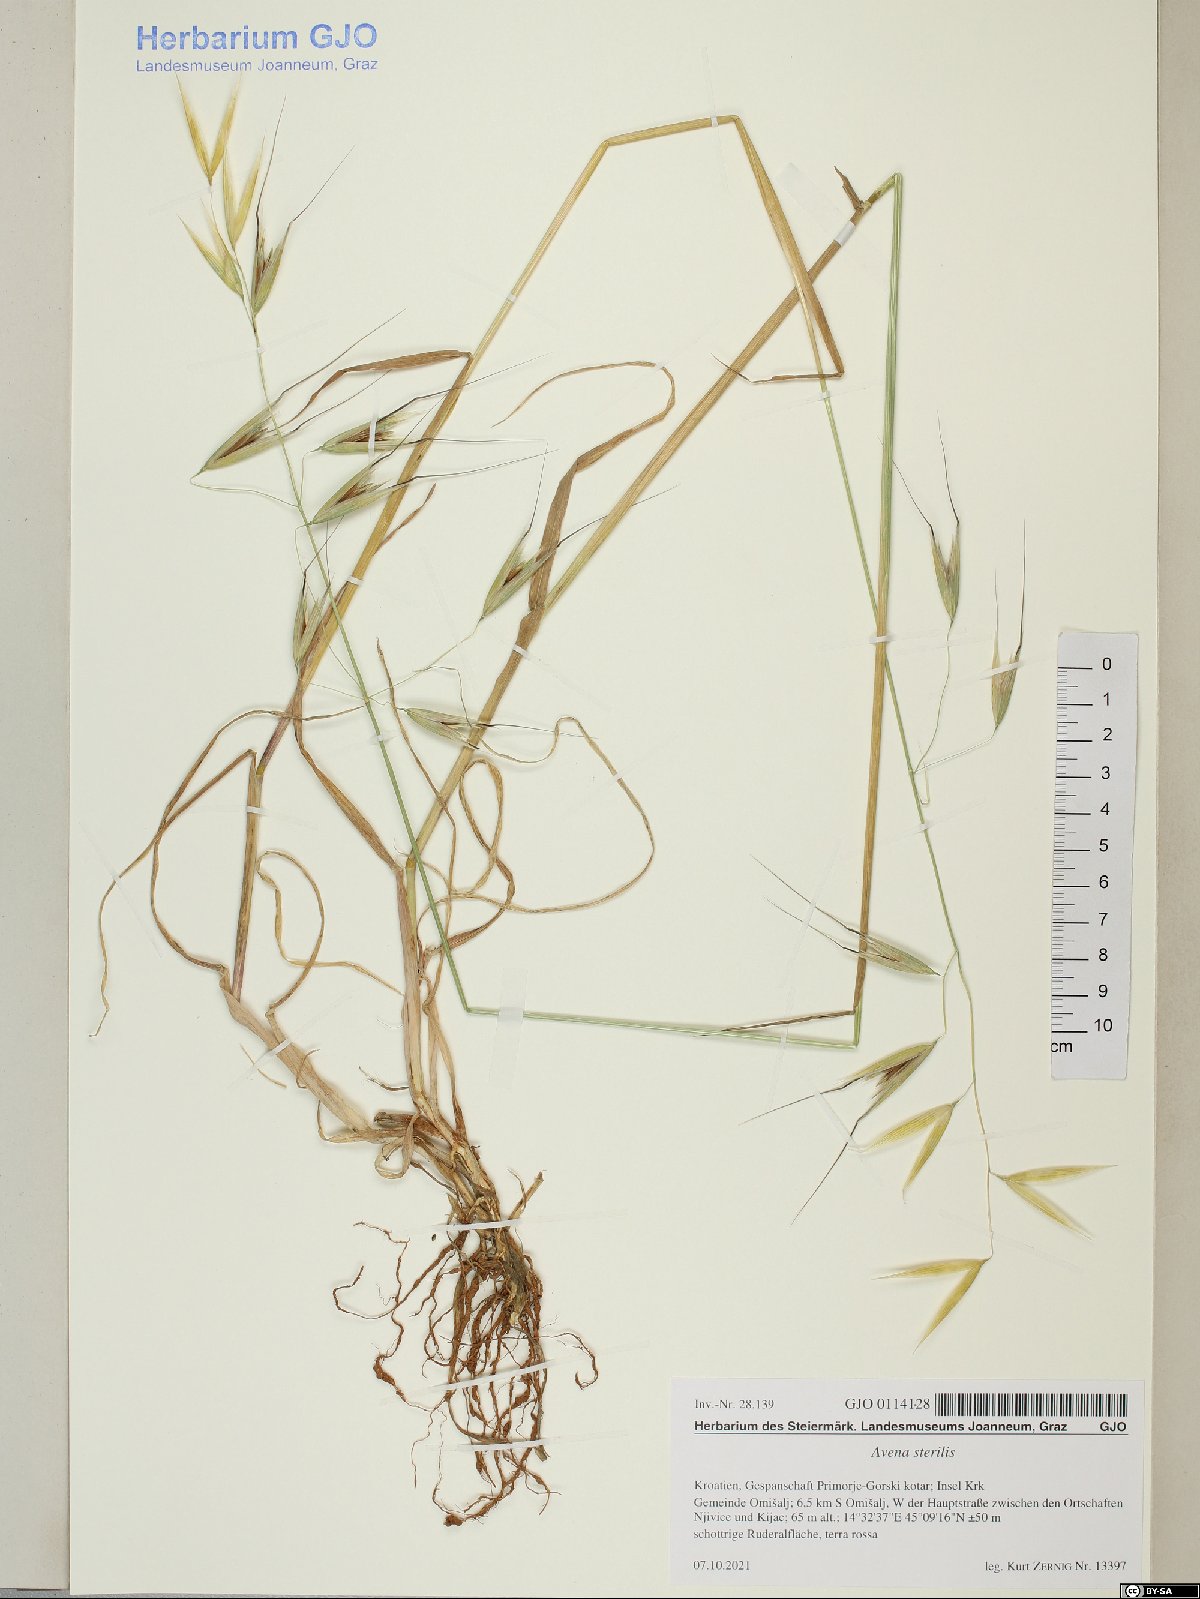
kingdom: Plantae
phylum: Tracheophyta
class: Liliopsida
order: Poales
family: Poaceae
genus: Avena
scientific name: Avena sterilis
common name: Animated oat
